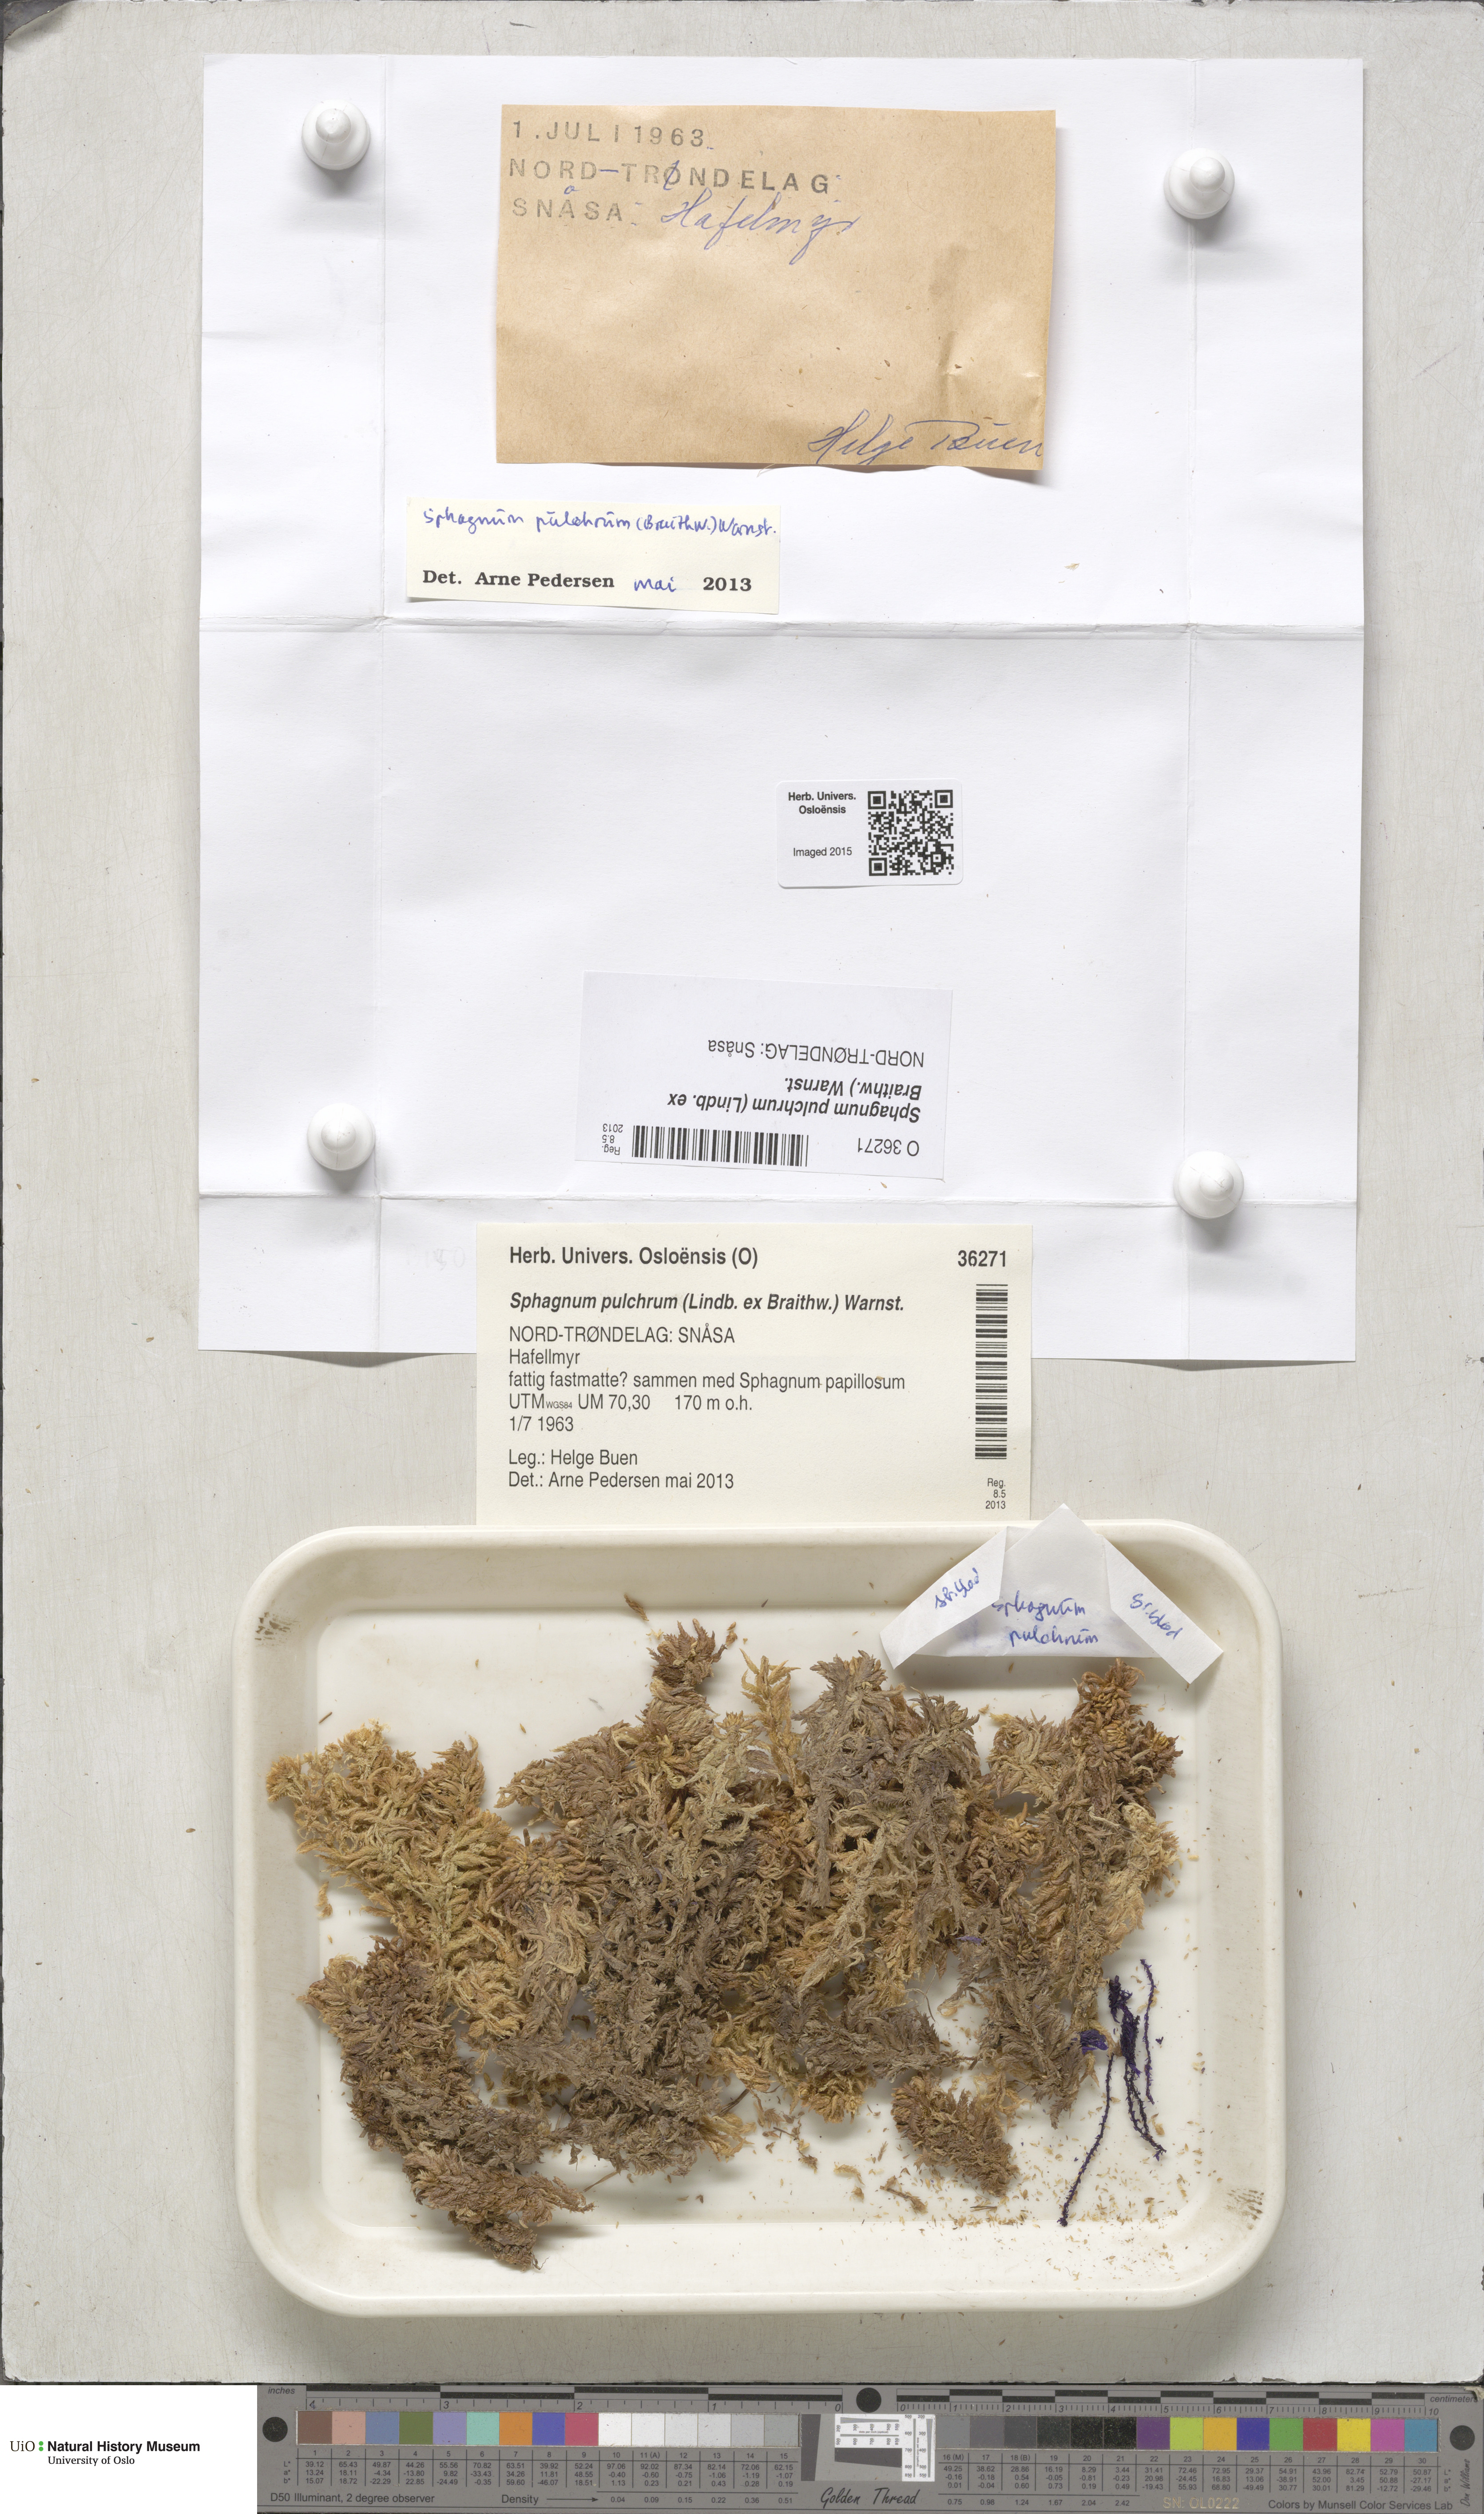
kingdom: Plantae
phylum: Bryophyta
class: Sphagnopsida
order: Sphagnales
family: Sphagnaceae
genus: Sphagnum
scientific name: Sphagnum pulchrum
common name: Beautiful peat moss
